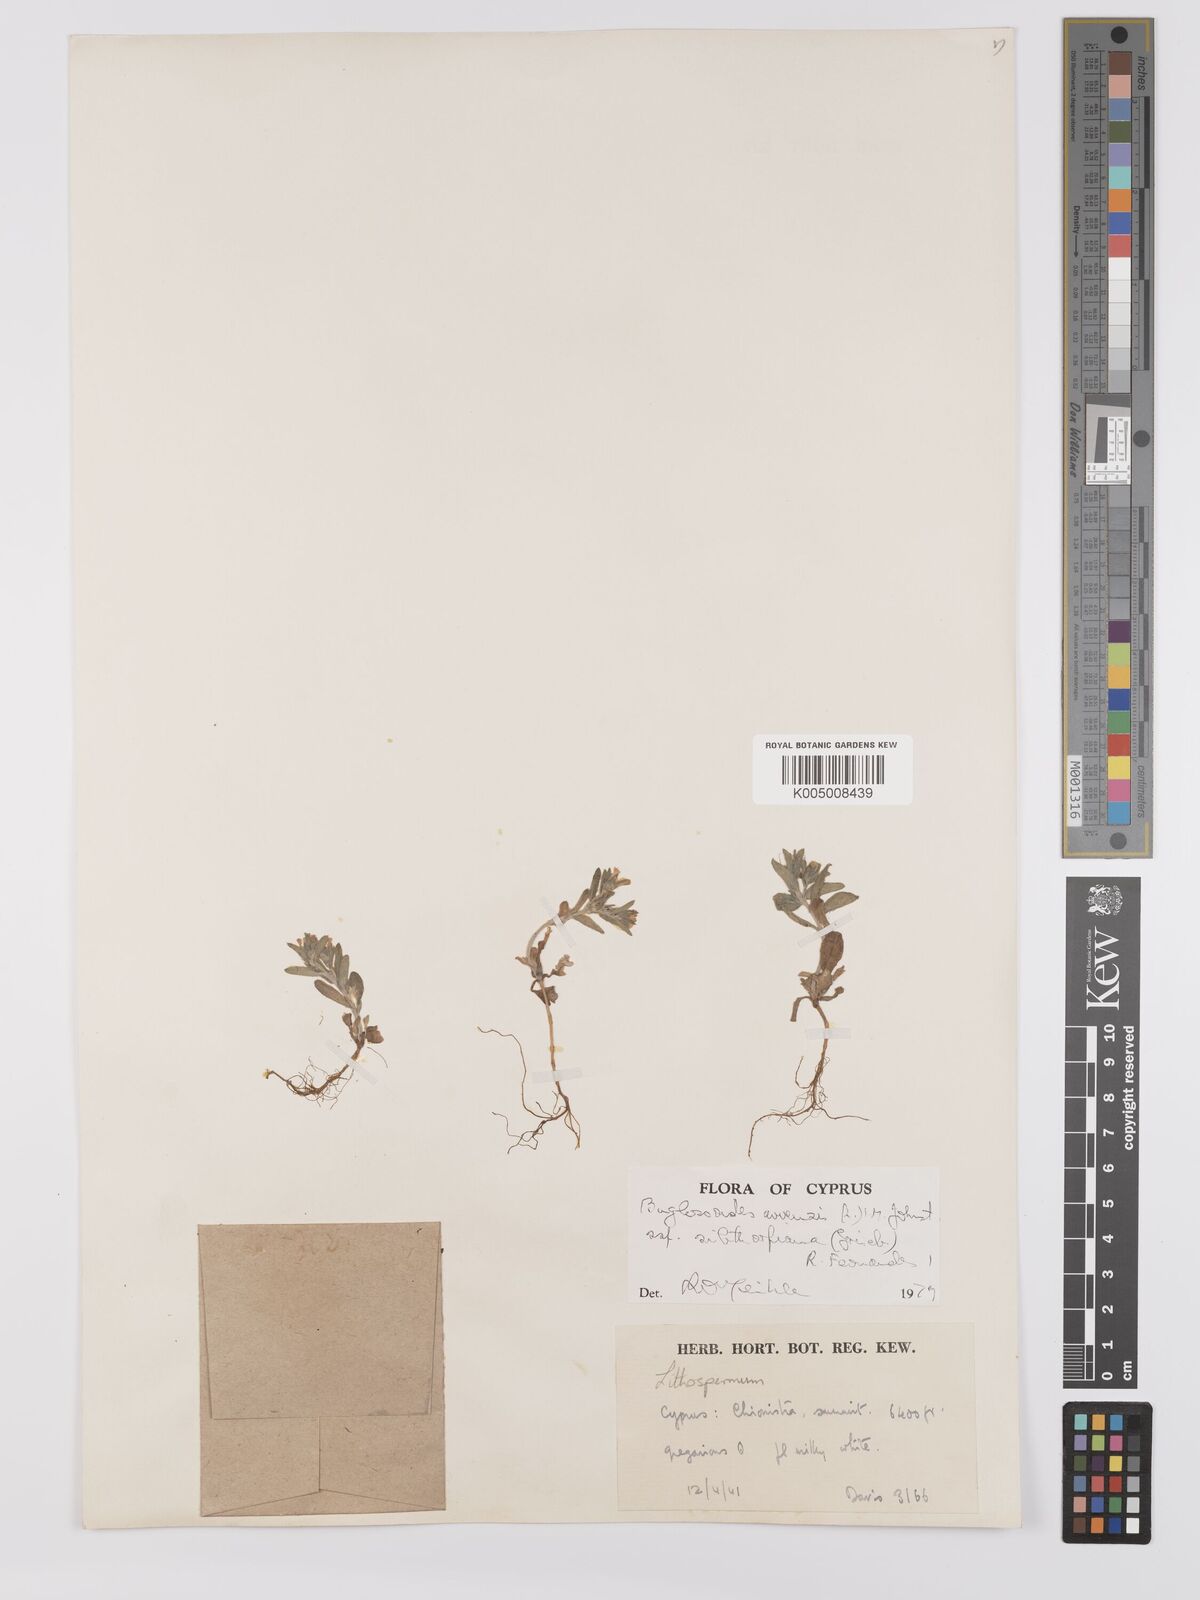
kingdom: Plantae
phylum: Tracheophyta
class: Magnoliopsida
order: Boraginales
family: Boraginaceae
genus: Buglossoides
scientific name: Buglossoides
